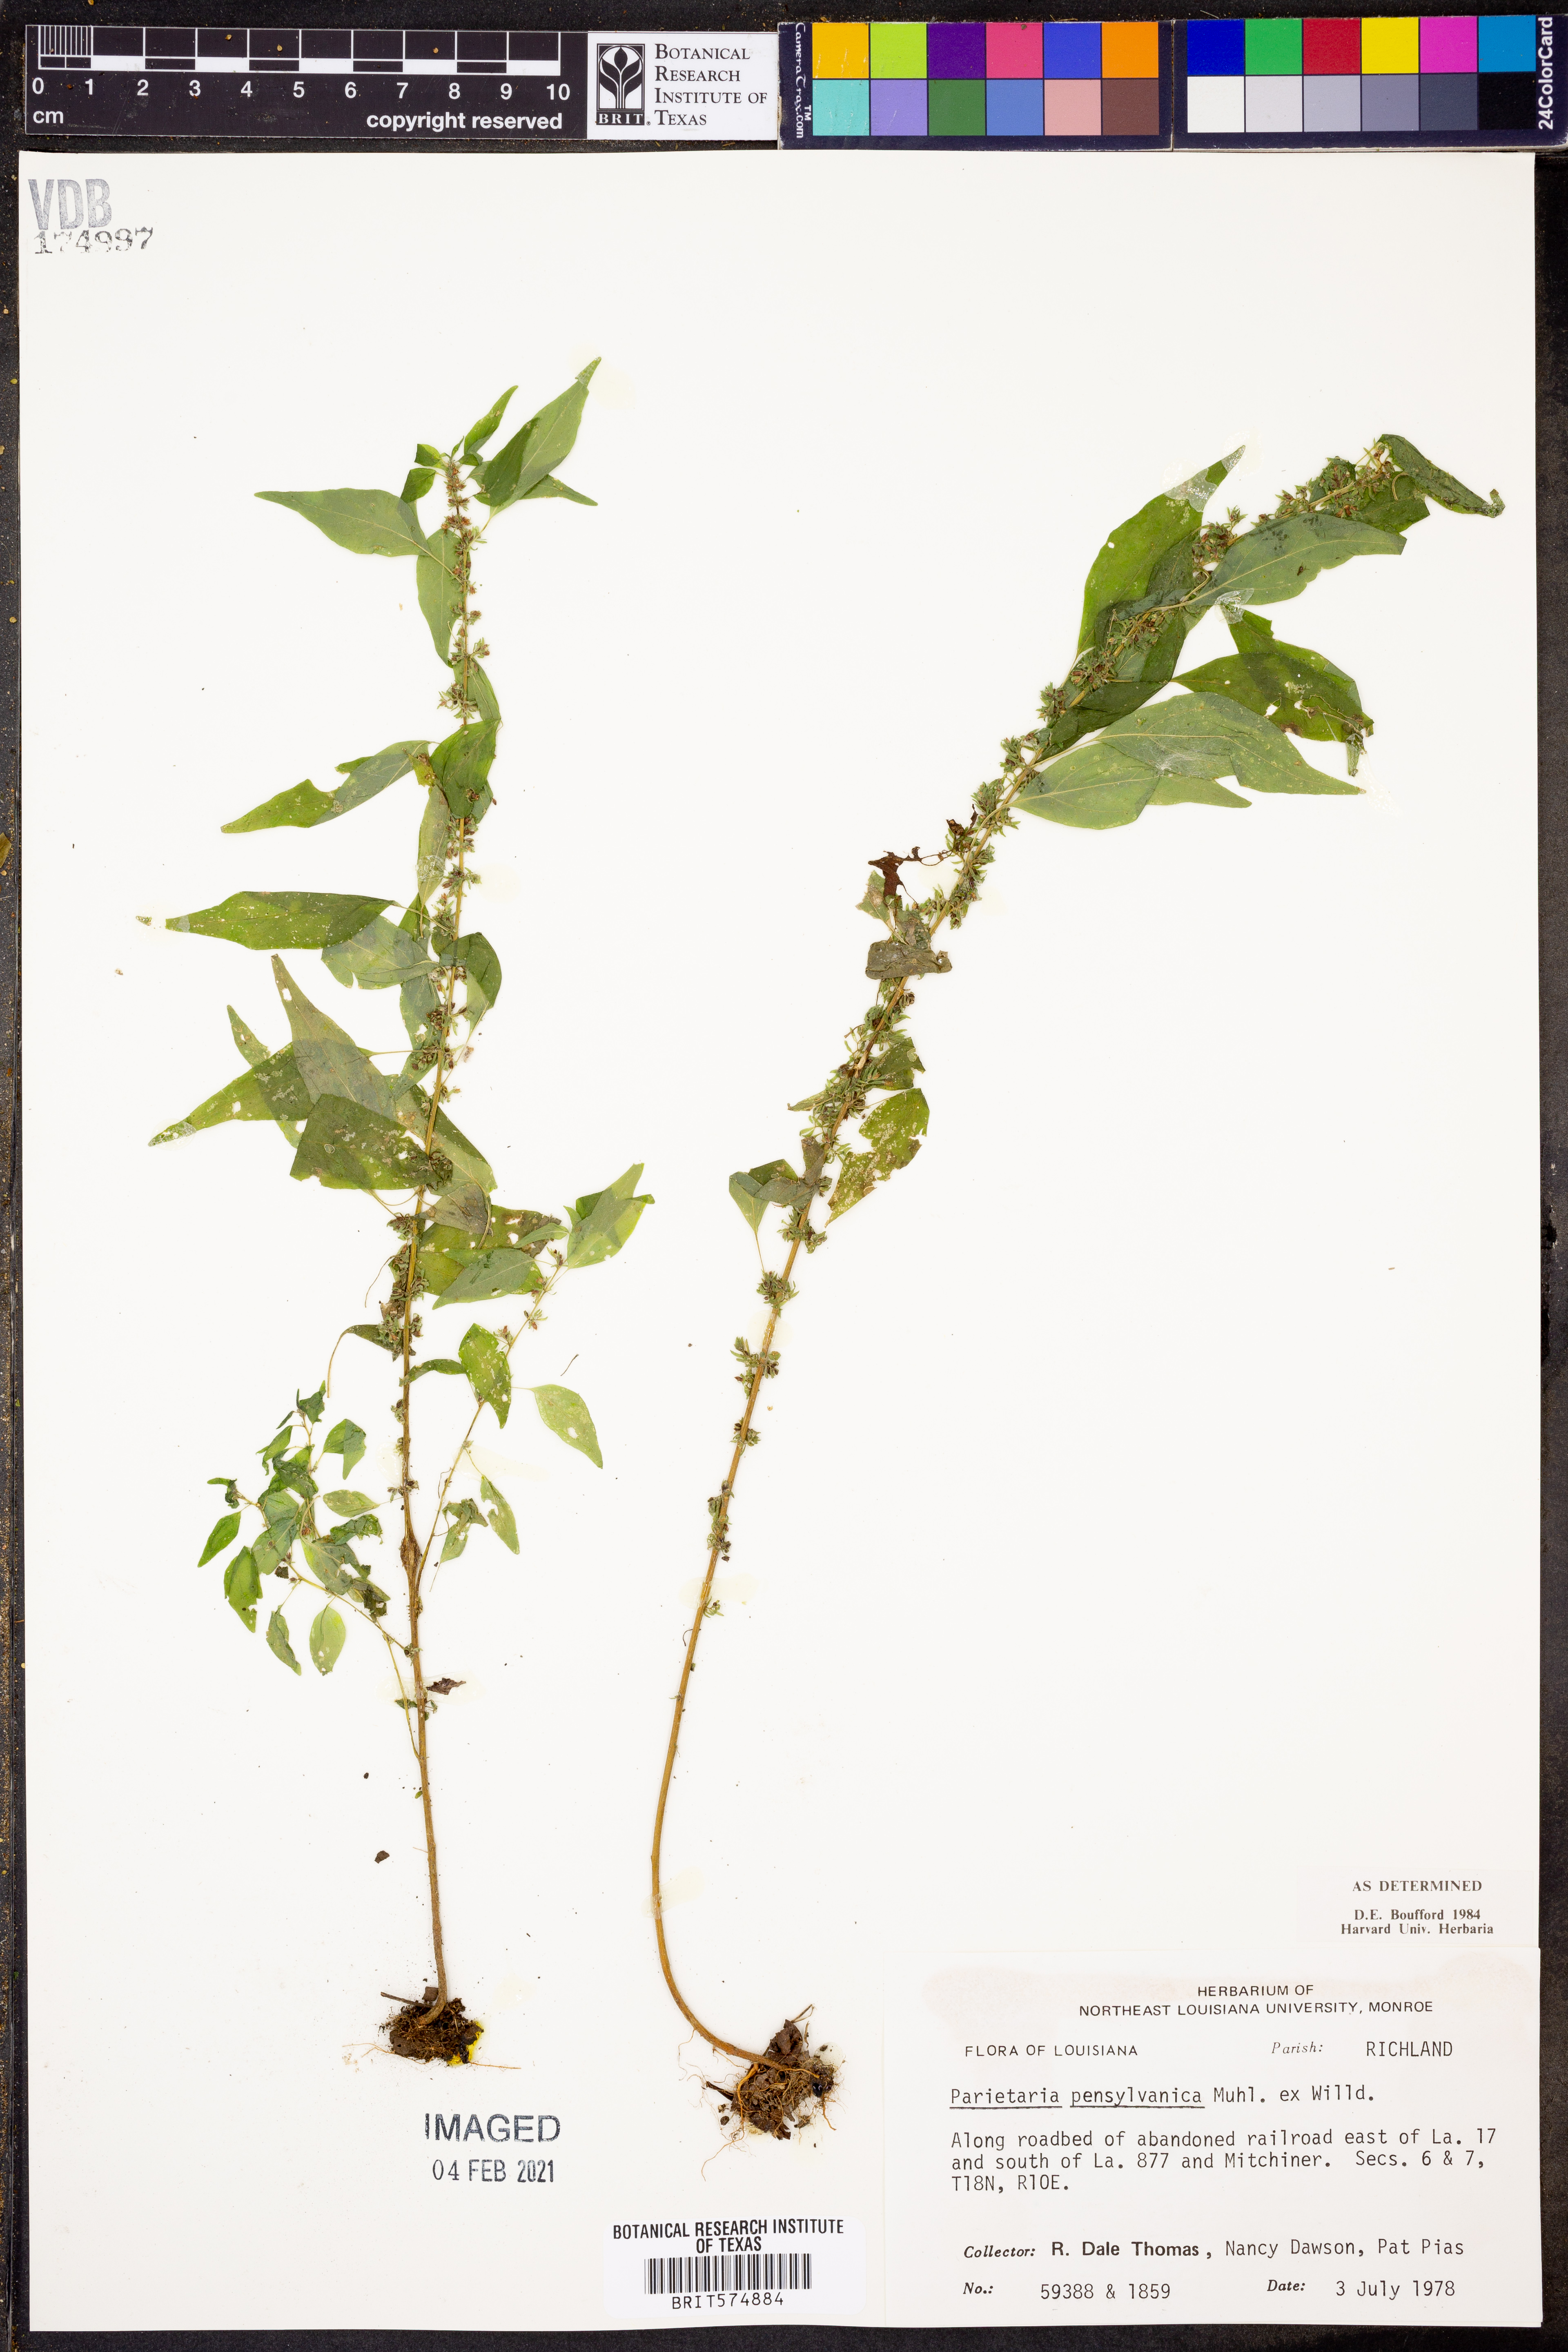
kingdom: Plantae
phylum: Tracheophyta
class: Magnoliopsida
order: Rosales
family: Urticaceae
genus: Parietaria
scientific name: Parietaria pensylvanica
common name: Pennsylvania pellitory
